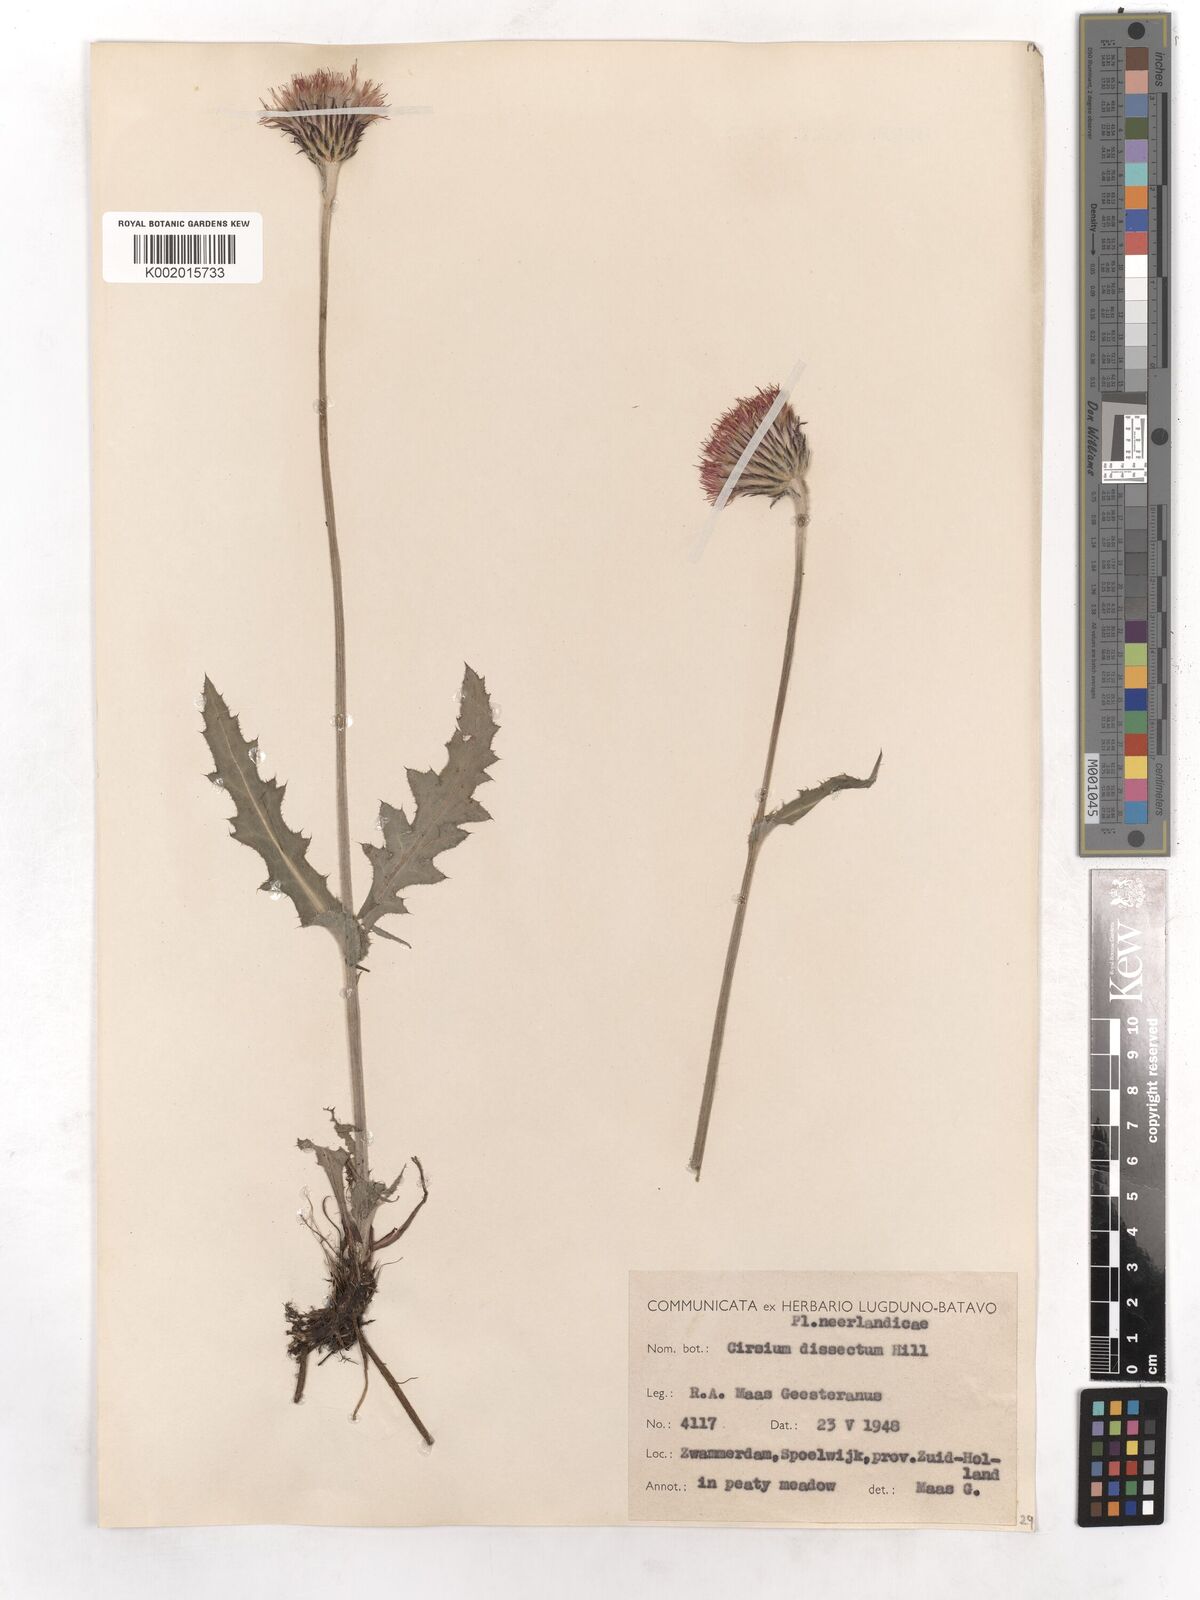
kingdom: Plantae
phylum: Tracheophyta
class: Magnoliopsida
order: Asterales
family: Asteraceae
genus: Cirsium
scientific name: Cirsium dissectum
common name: Meadow thistle
